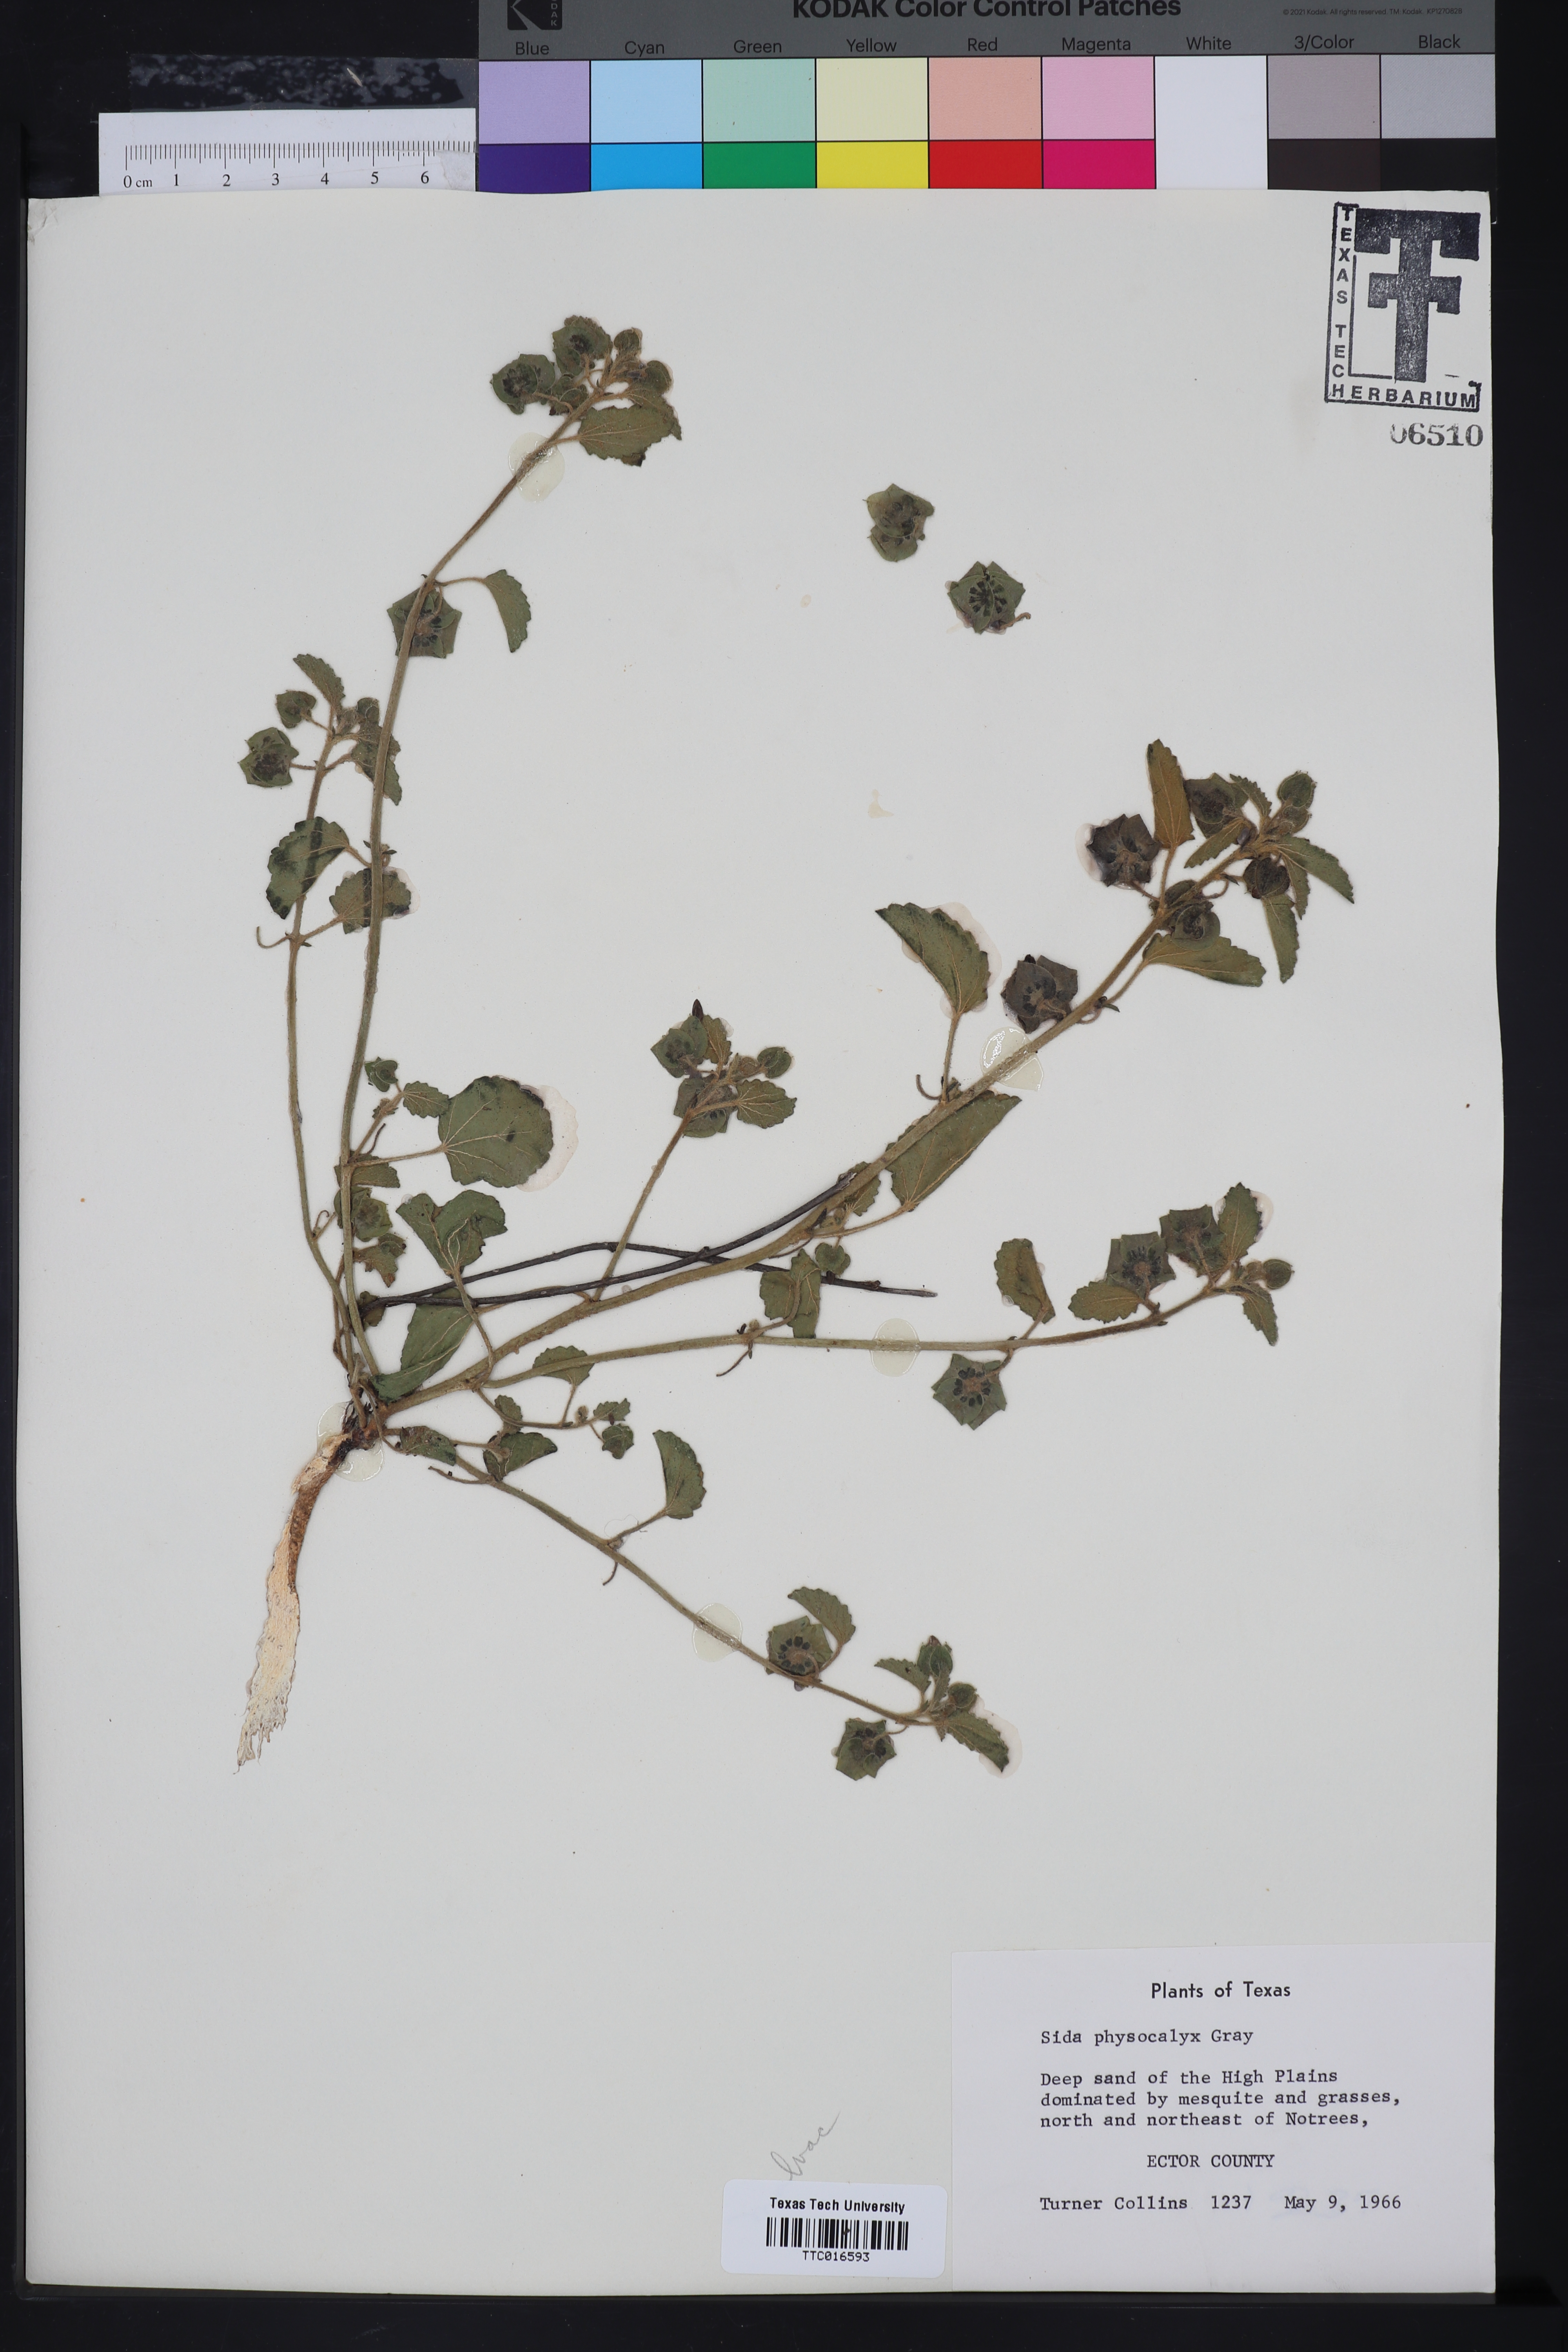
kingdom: Plantae
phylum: Tracheophyta
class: Magnoliopsida
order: Malvales
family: Malvaceae
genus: Rhynchosida
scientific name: Rhynchosida physocalyx
